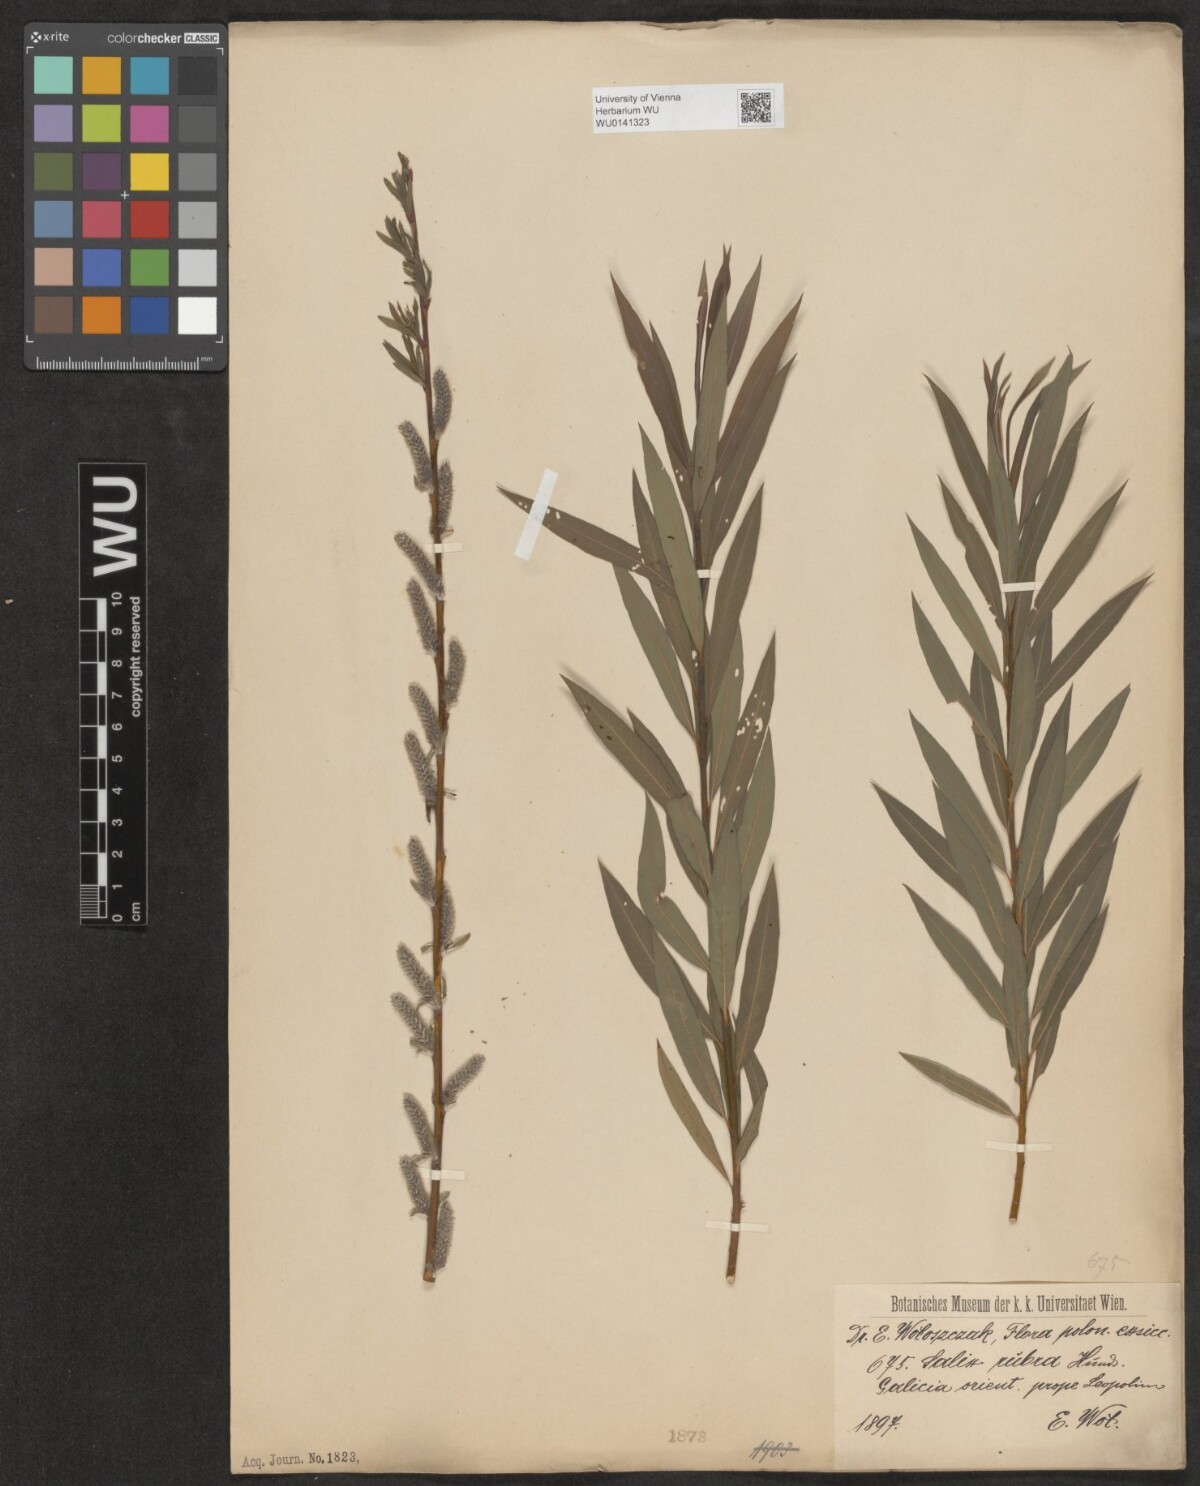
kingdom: Plantae
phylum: Tracheophyta
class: Magnoliopsida
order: Malpighiales
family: Salicaceae
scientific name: Salicaceae
